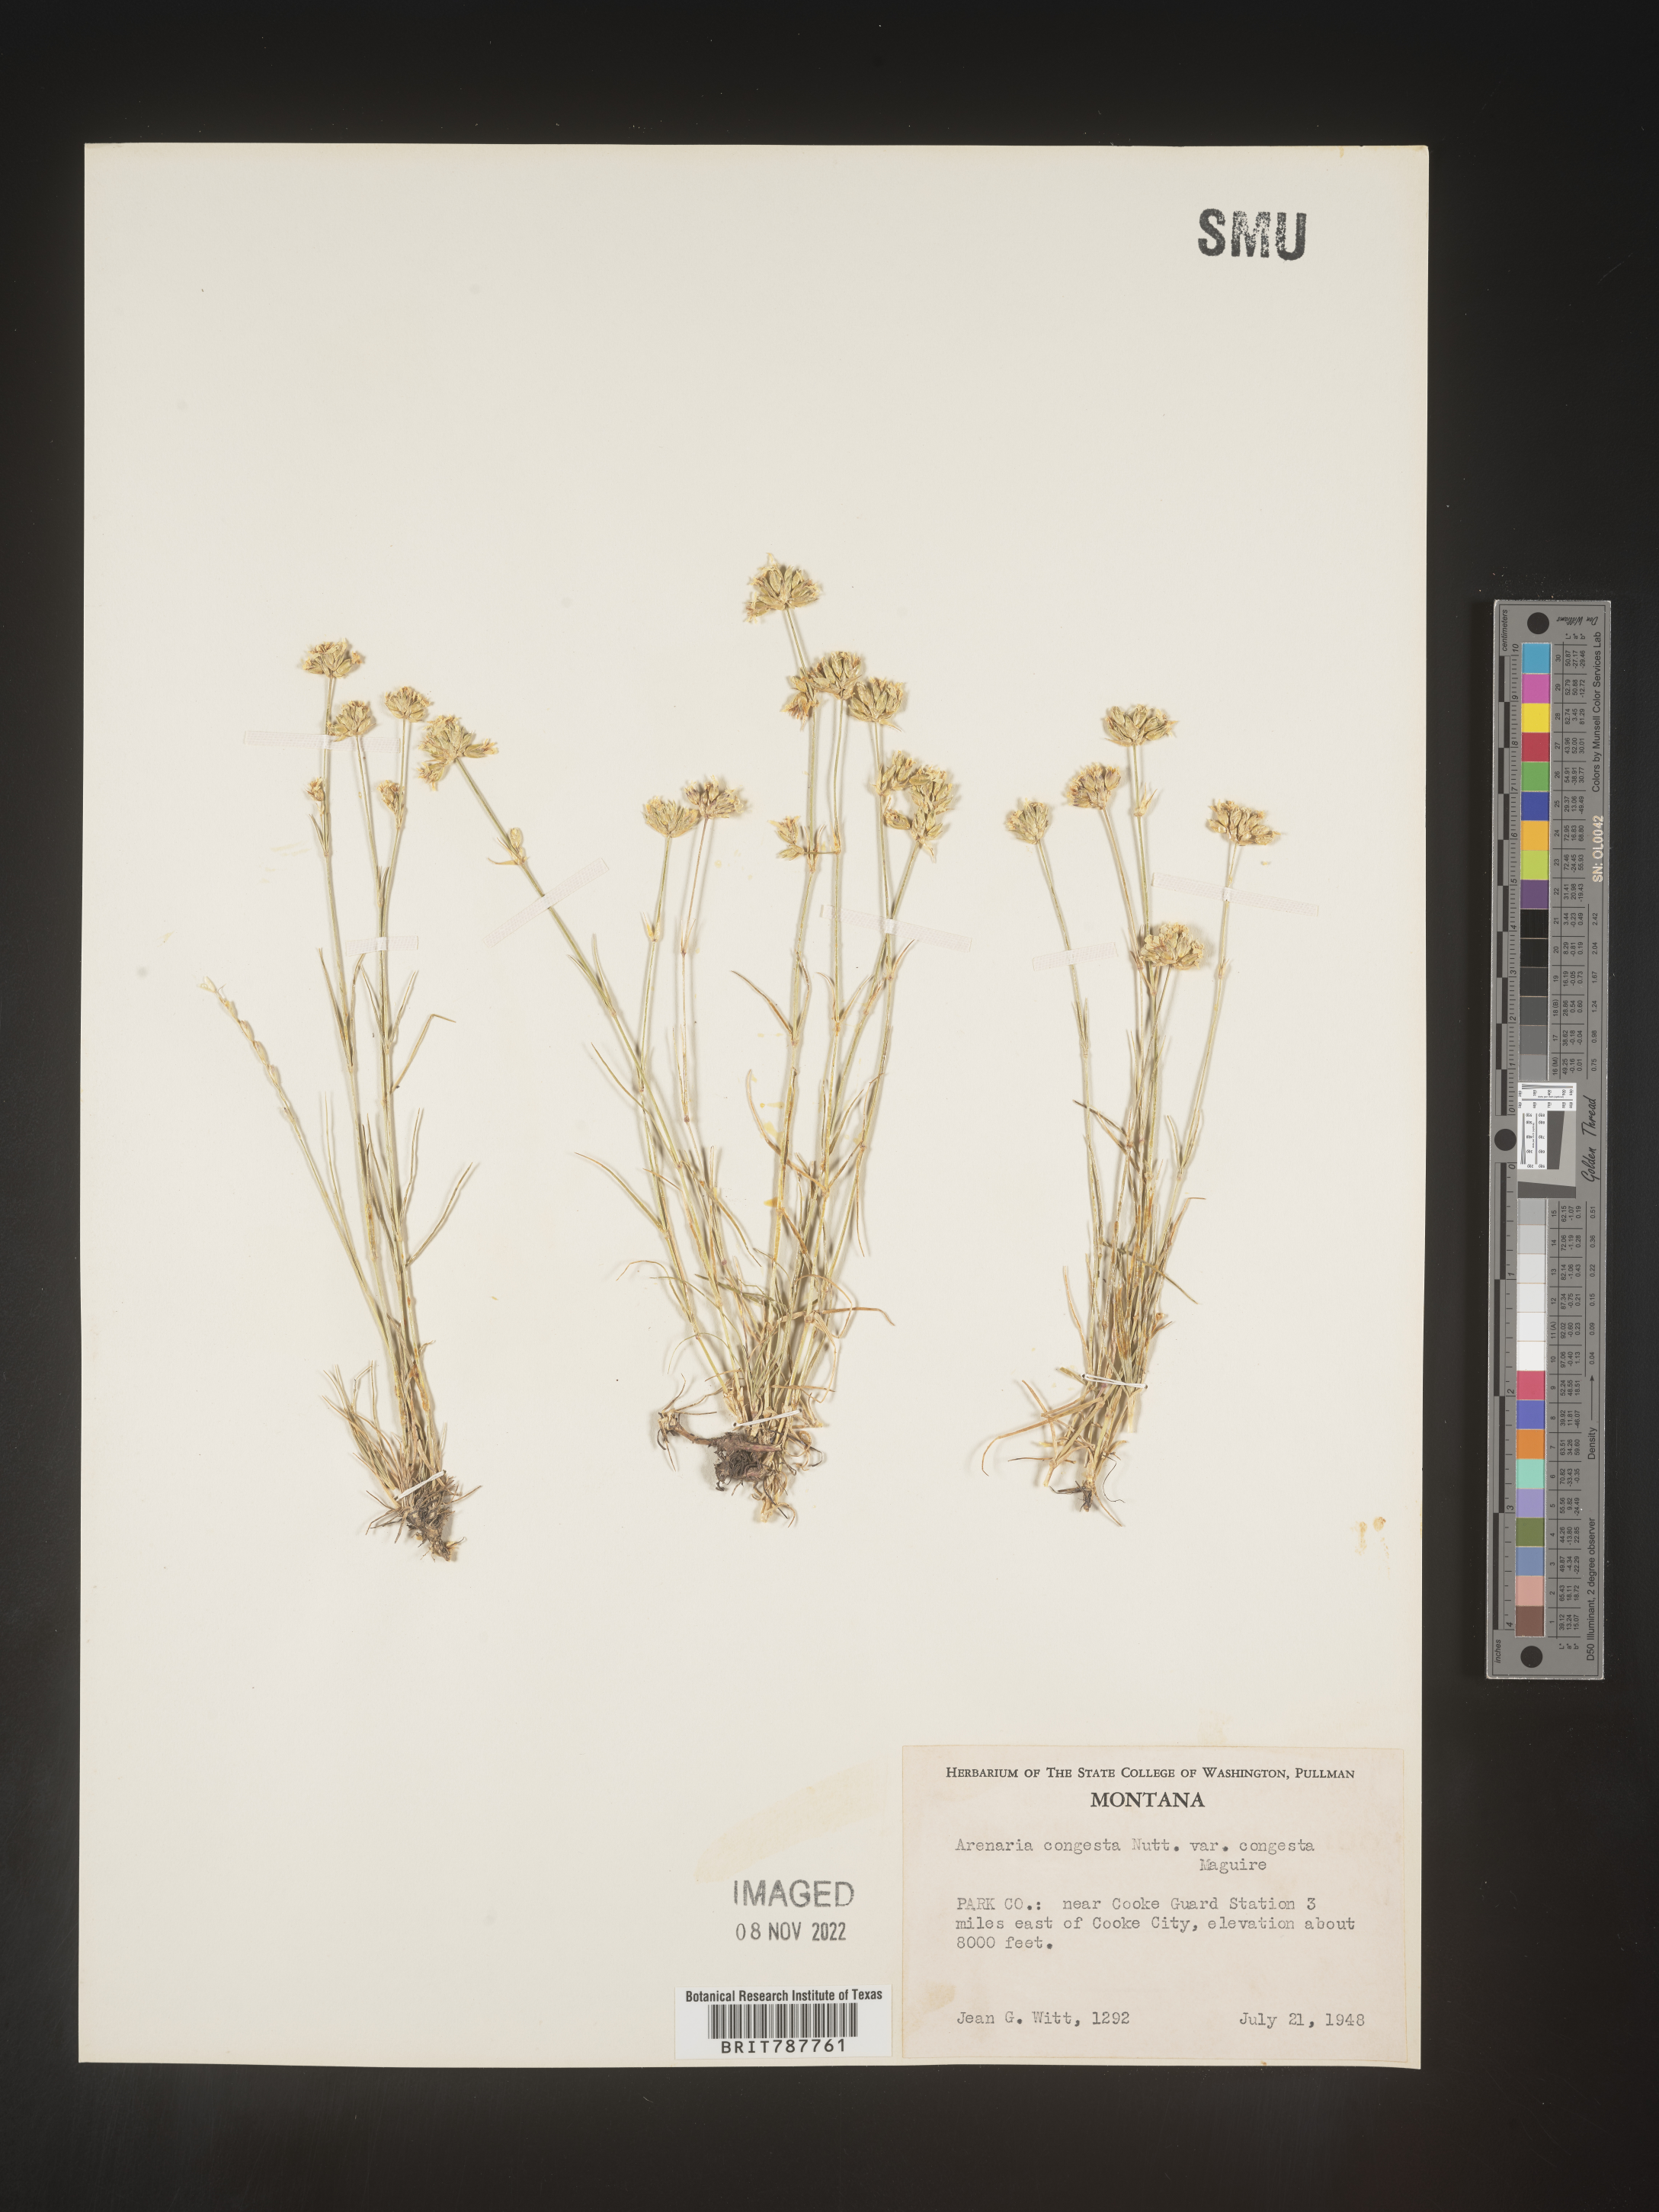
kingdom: Plantae
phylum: Tracheophyta
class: Magnoliopsida
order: Caryophyllales
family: Caryophyllaceae
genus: Eremogone
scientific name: Eremogone congesta
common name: Ballhead sandwort
